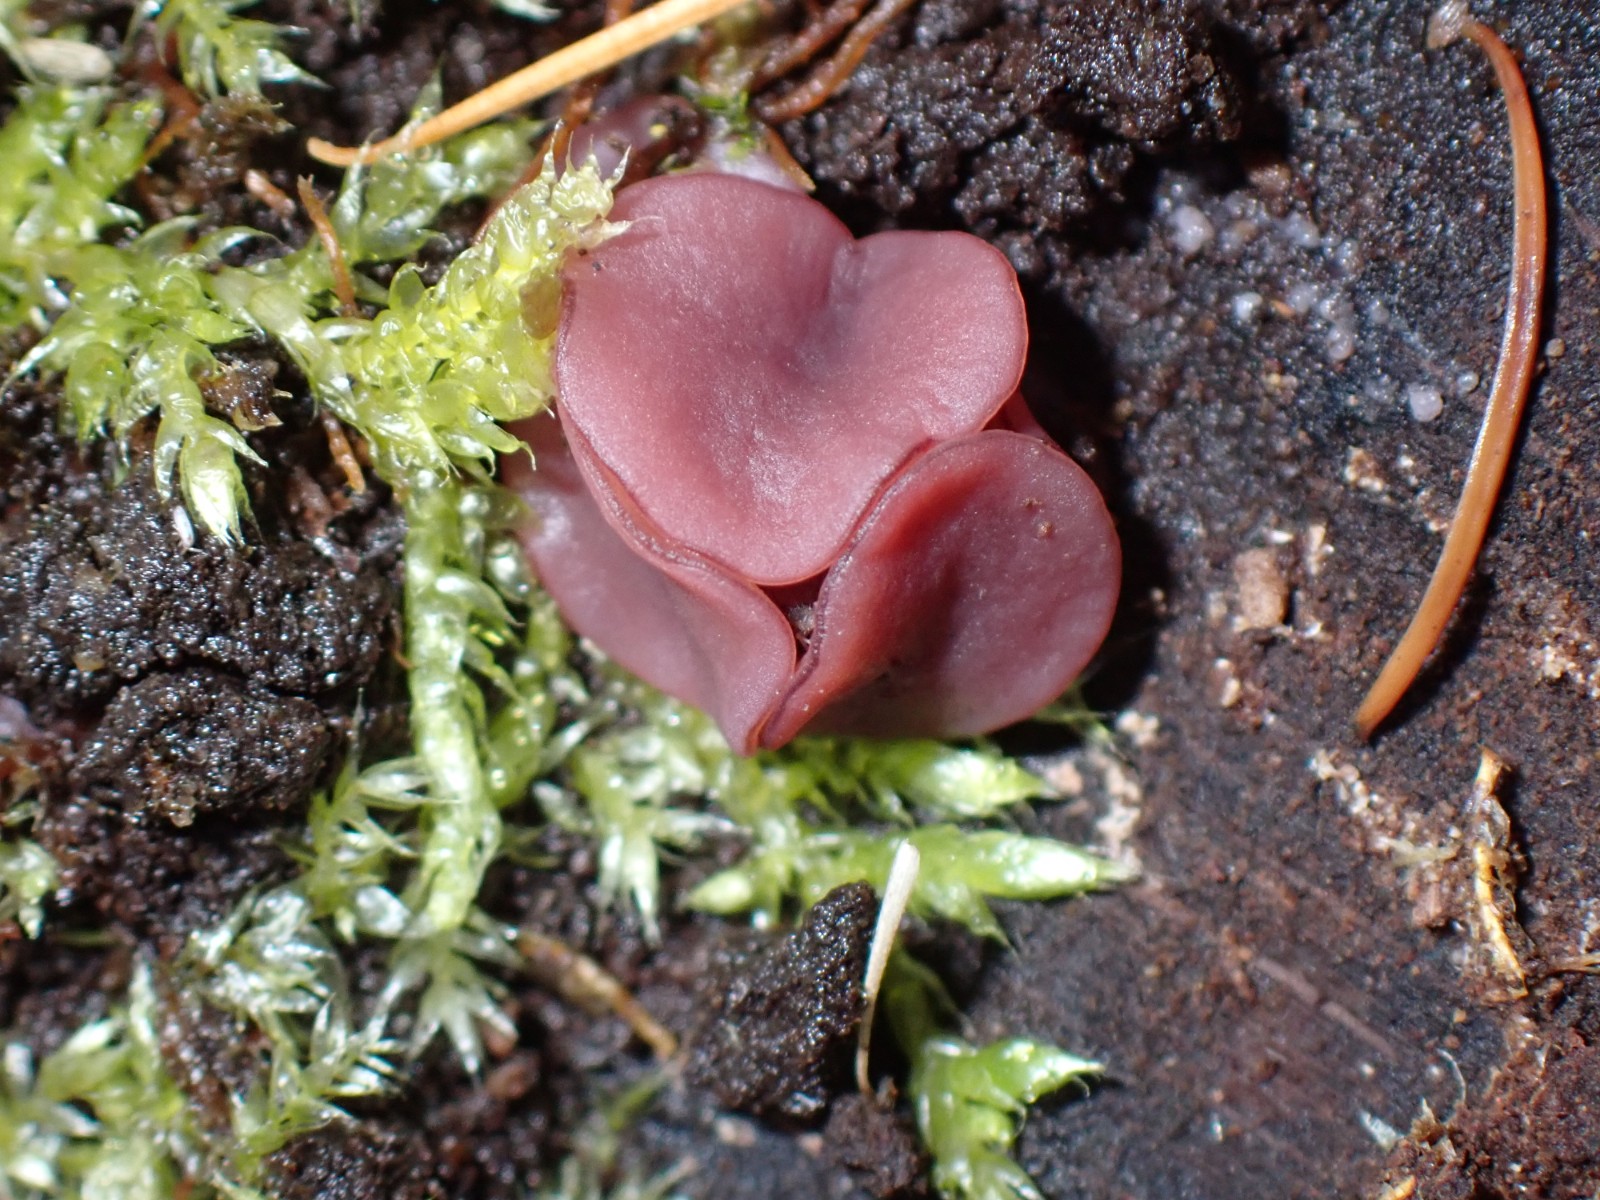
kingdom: Fungi
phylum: Ascomycota
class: Leotiomycetes
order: Helotiales
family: Gelatinodiscaceae
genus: Ascocoryne
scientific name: Ascocoryne cylichnium
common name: stor sejskive
